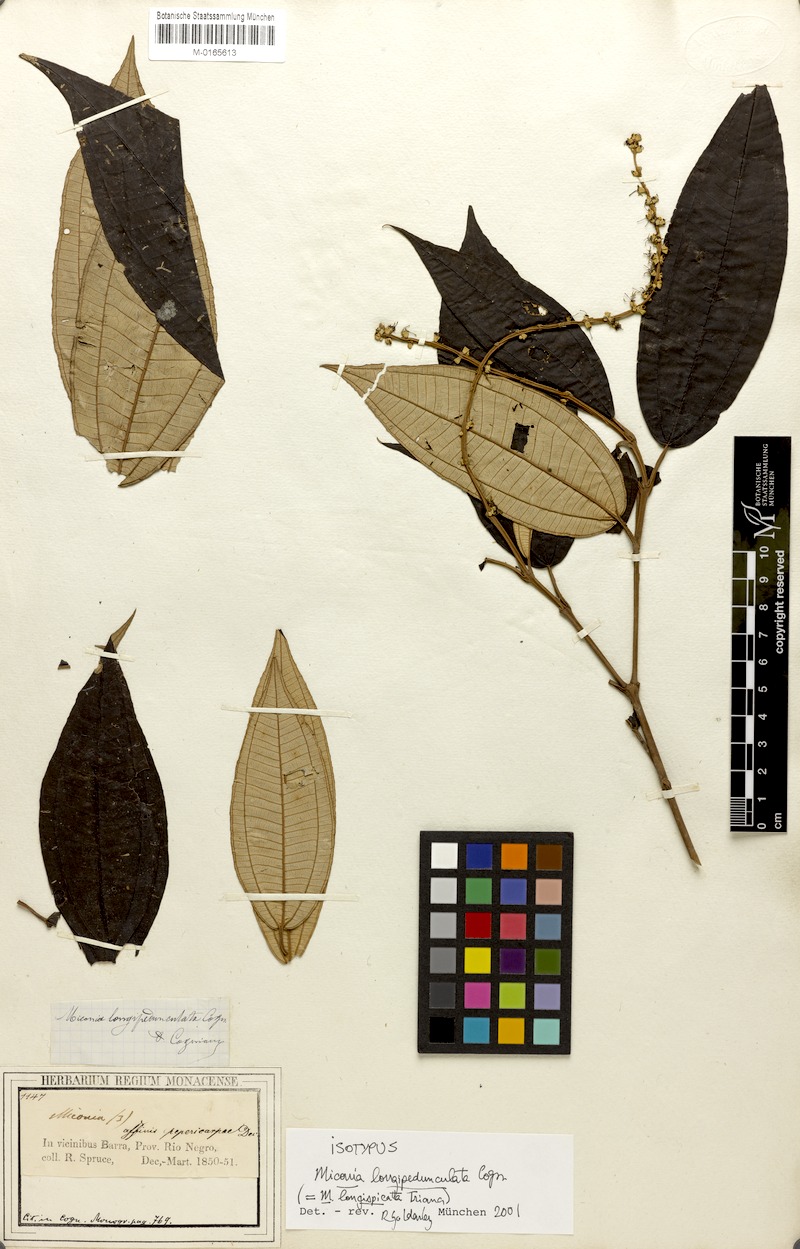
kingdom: Plantae
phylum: Tracheophyta
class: Magnoliopsida
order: Myrtales
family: Melastomataceae
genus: Miconia
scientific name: Miconia longispicata
